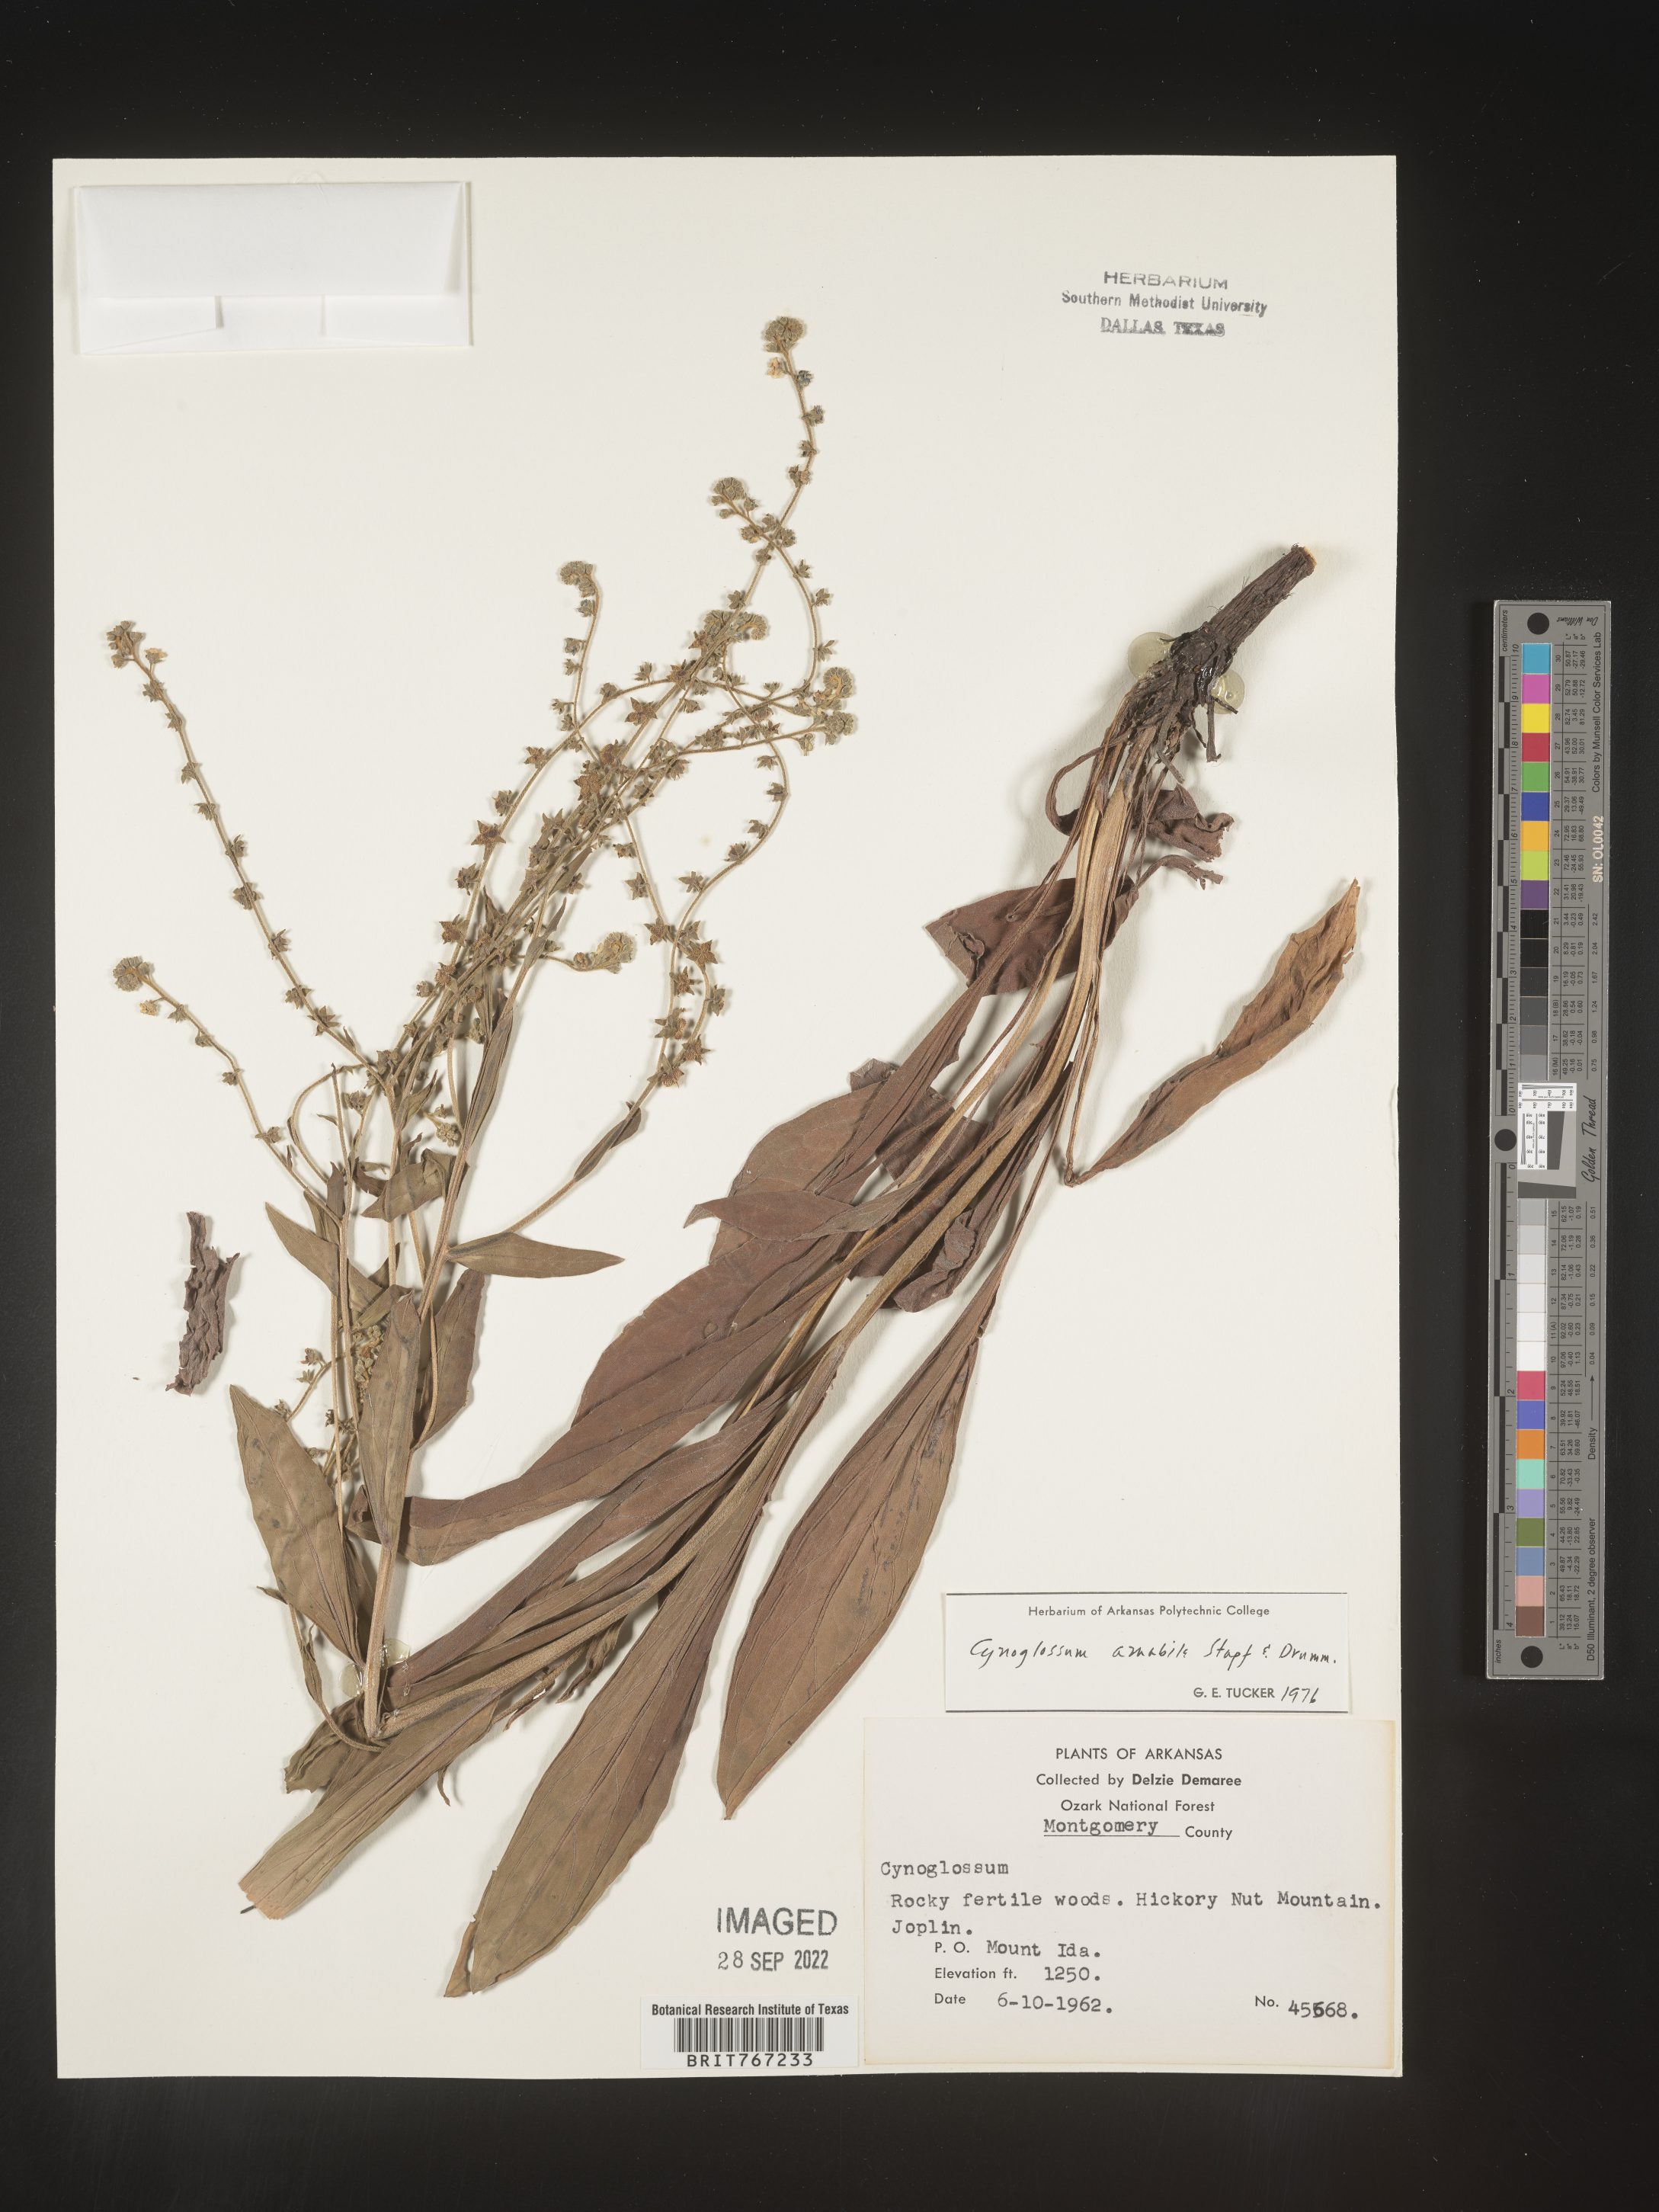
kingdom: Plantae
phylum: Tracheophyta
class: Magnoliopsida
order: Boraginales
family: Boraginaceae
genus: Cynoglossum
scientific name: Cynoglossum
